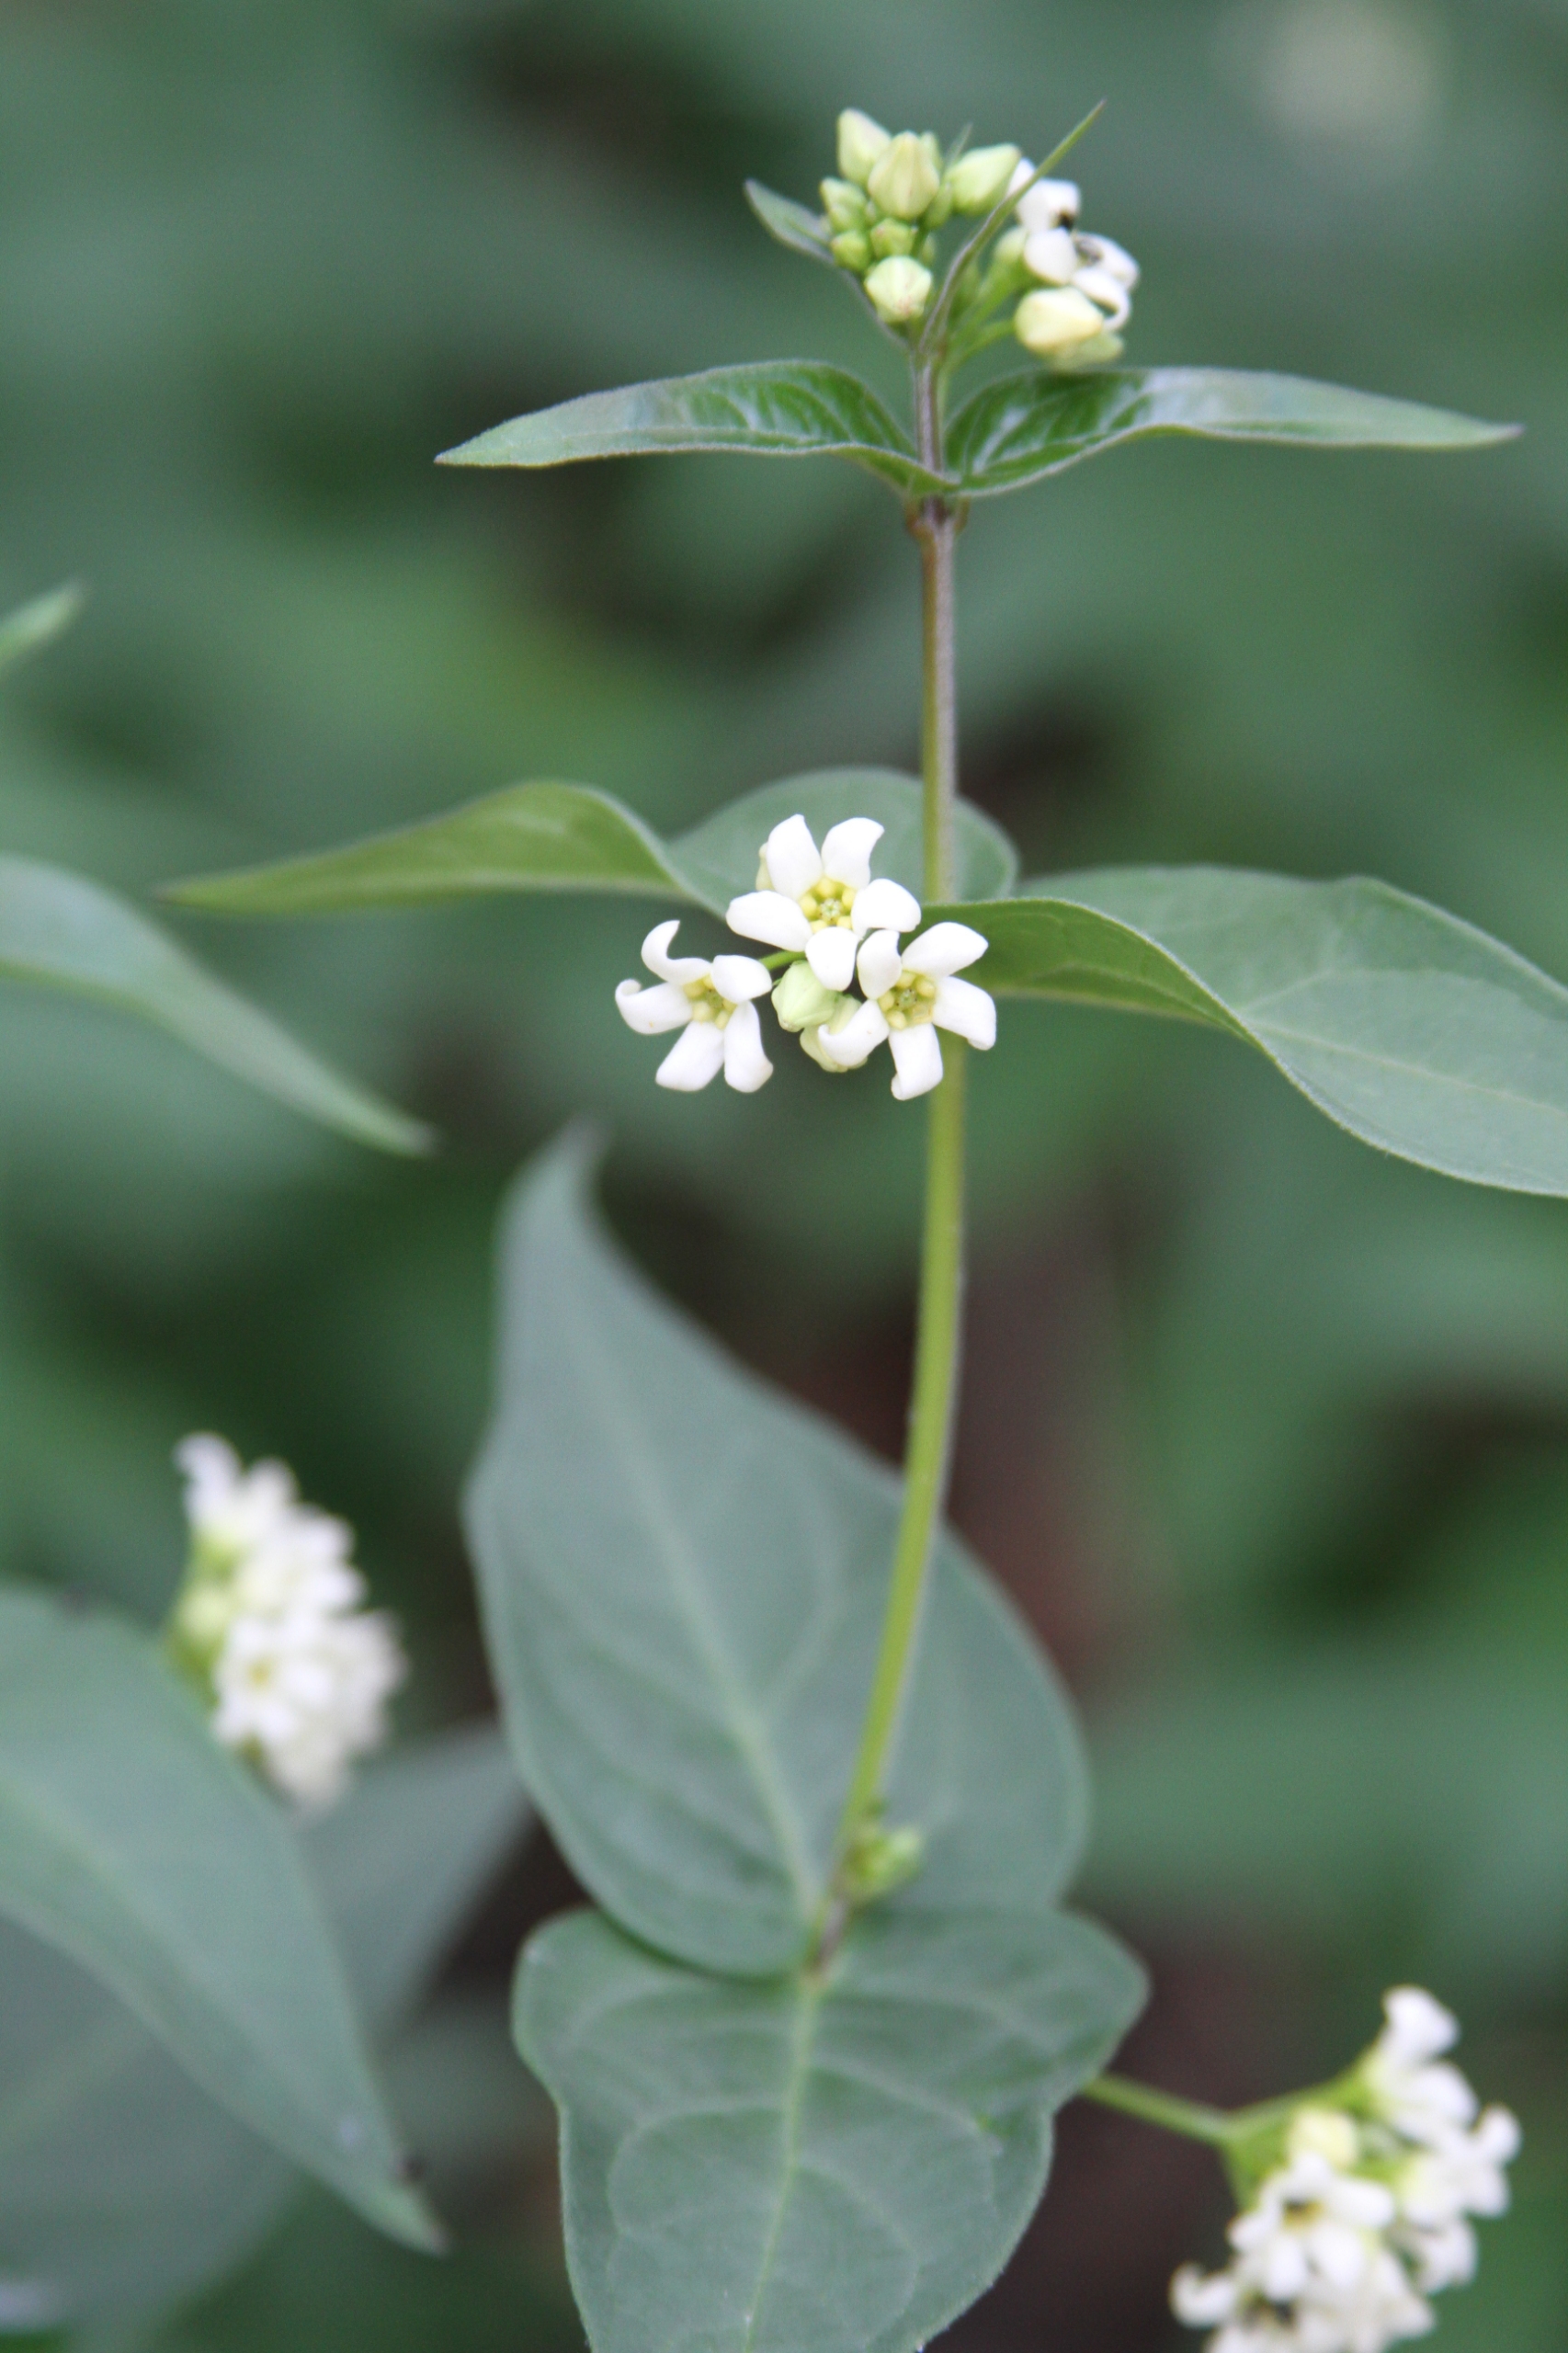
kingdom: Plantae
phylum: Tracheophyta
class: Magnoliopsida
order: Gentianales
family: Apocynaceae
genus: Vincetoxicum
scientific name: Vincetoxicum hirundinaria
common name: Svalerod
